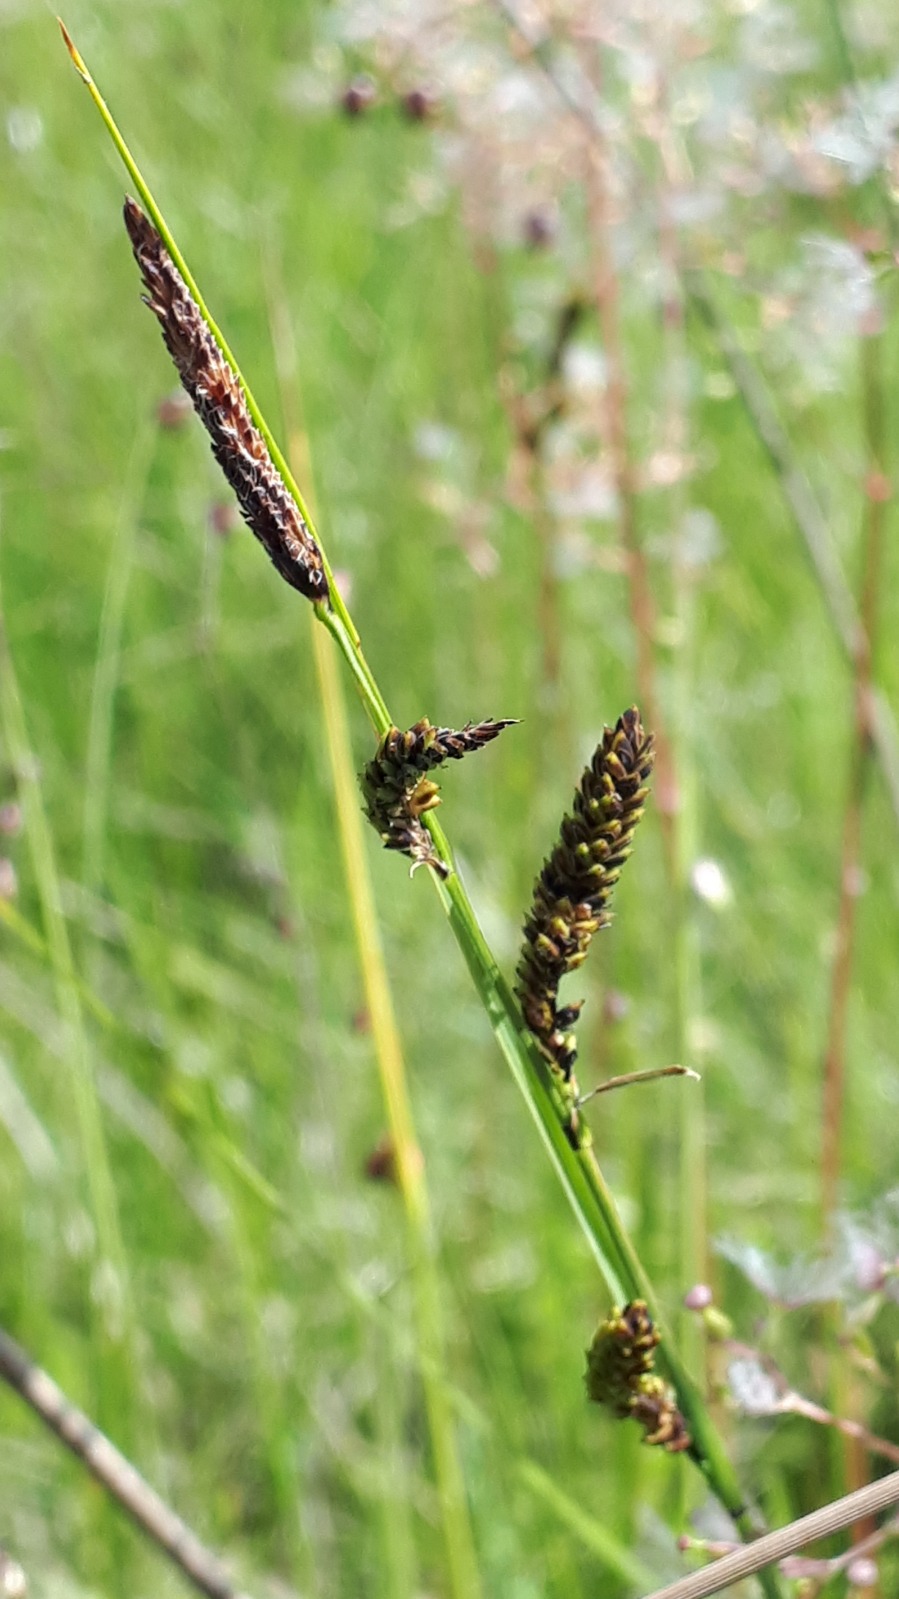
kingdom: Plantae
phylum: Tracheophyta
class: Liliopsida
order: Poales
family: Cyperaceae
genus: Carex
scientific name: Carex nigra
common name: Almindelig star
